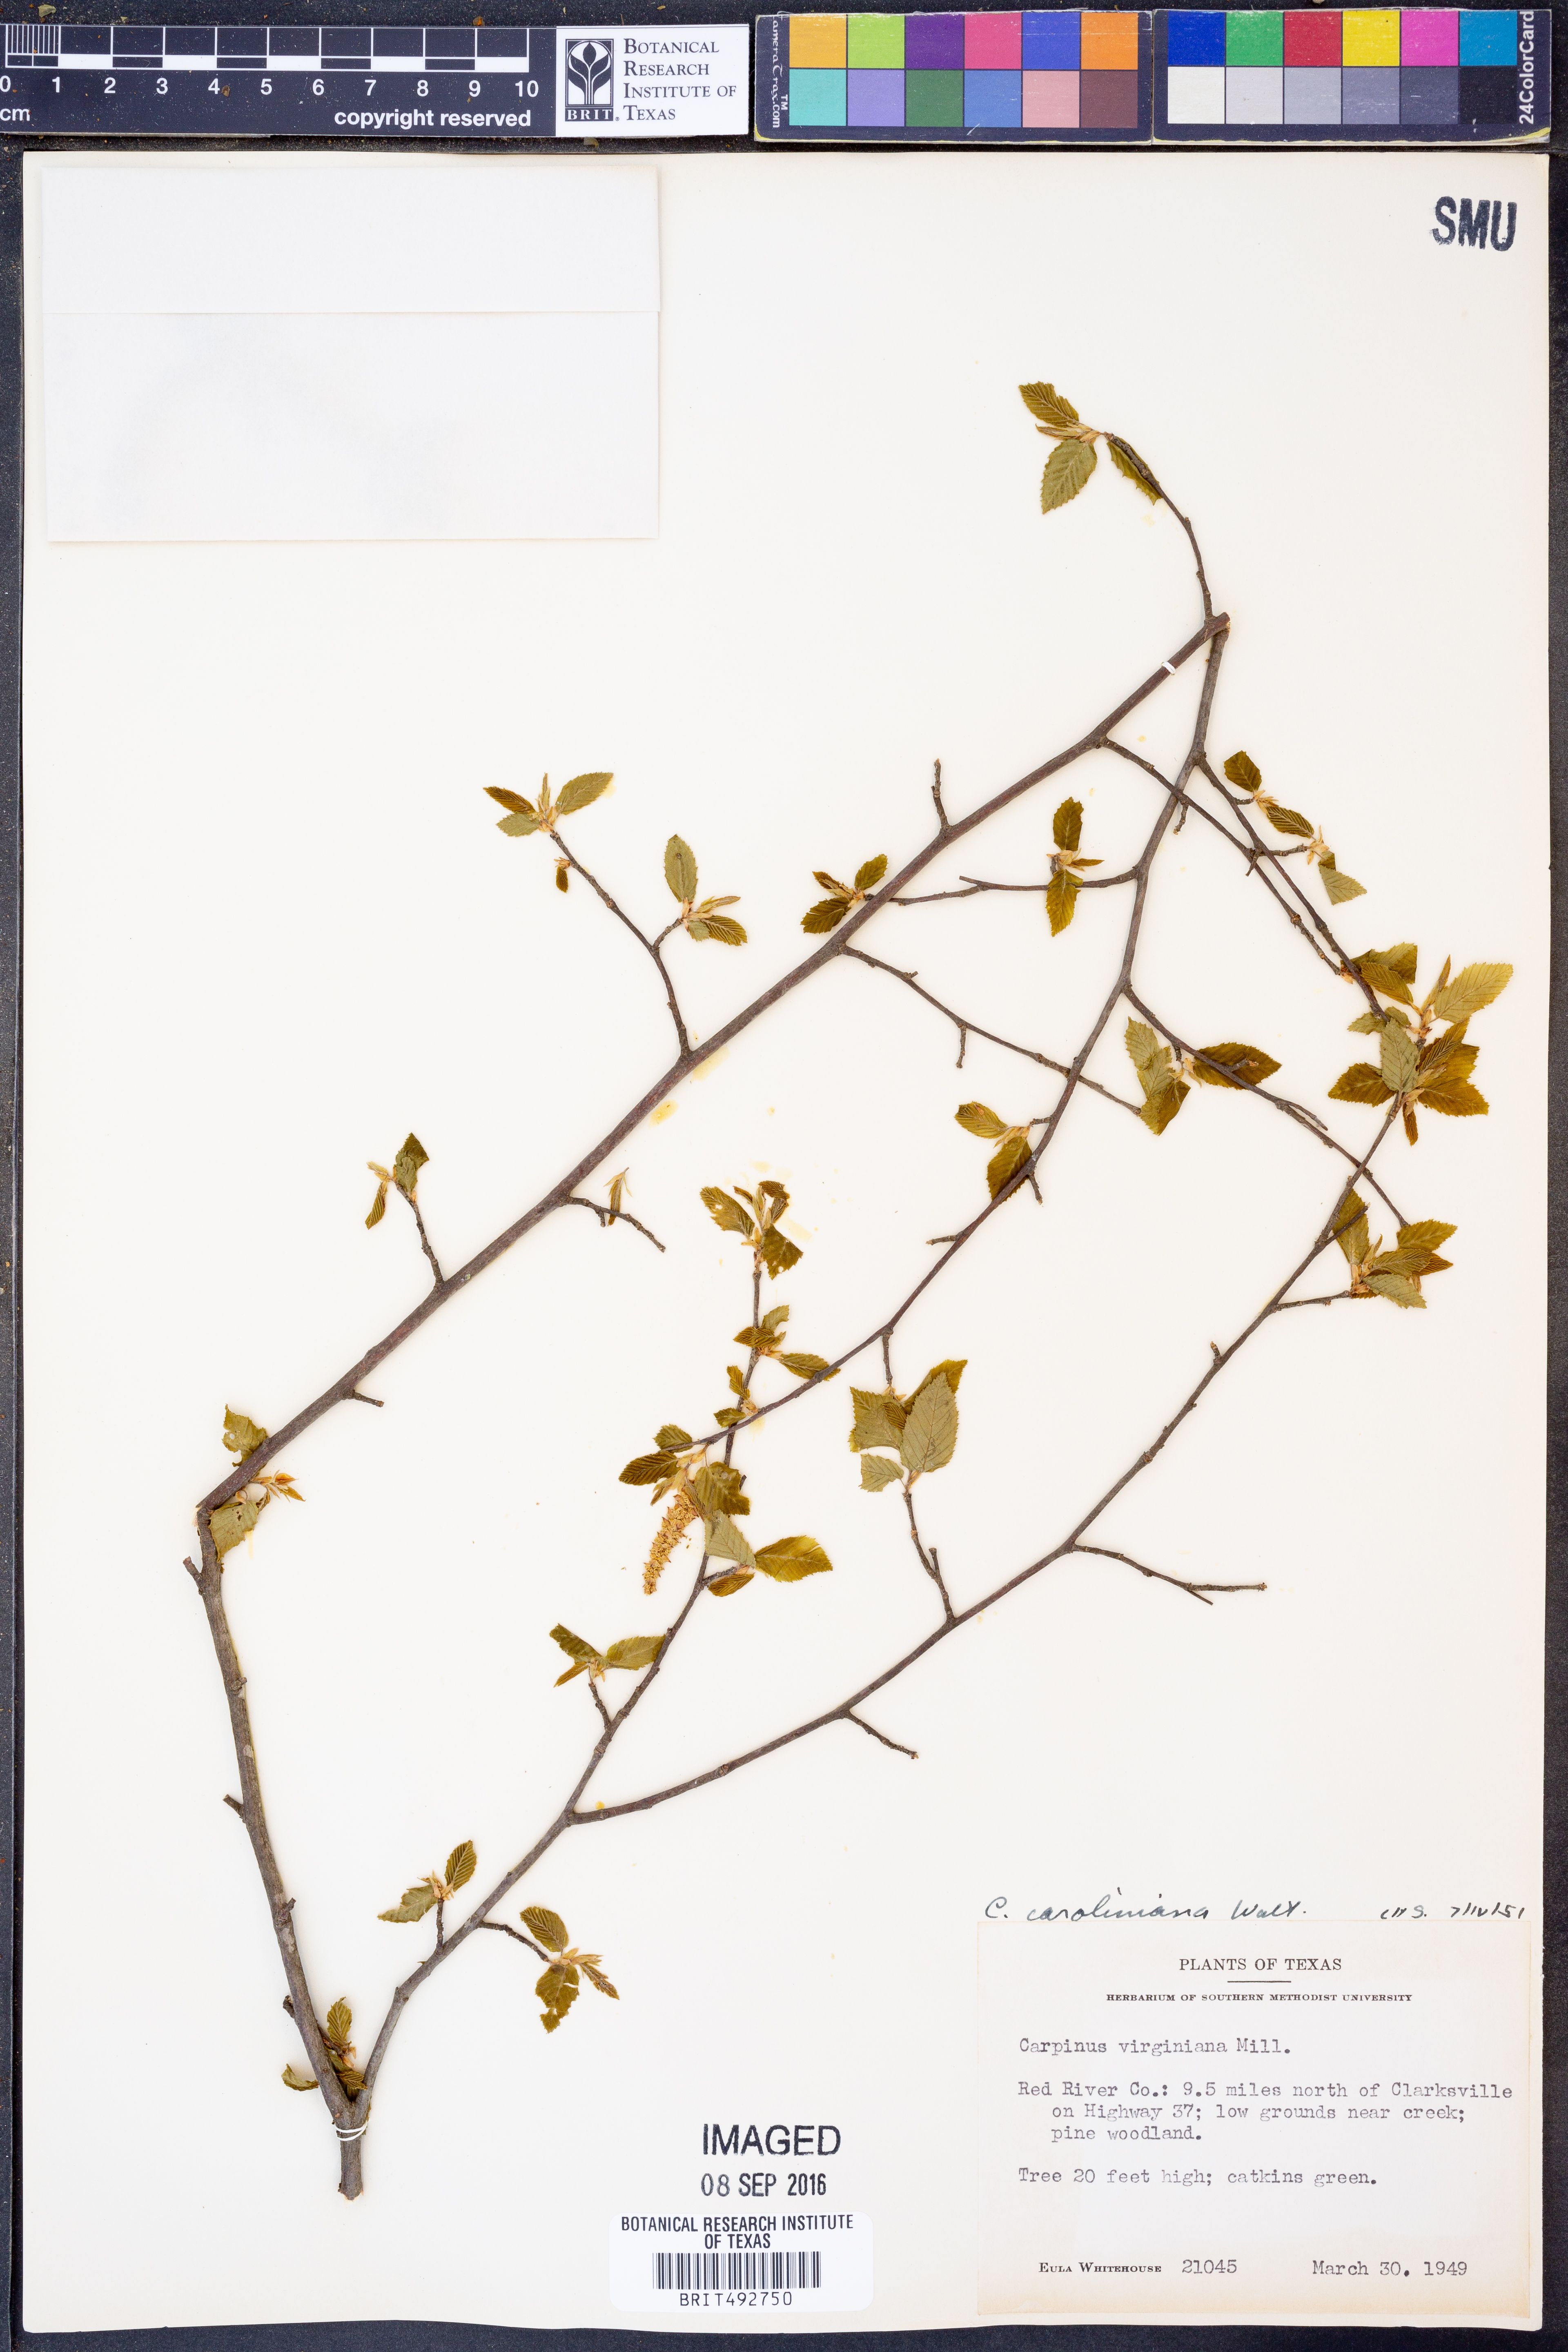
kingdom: Plantae
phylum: Tracheophyta
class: Liliopsida
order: Poales
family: Cyperaceae
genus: Carex
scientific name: Carex caroliniana
